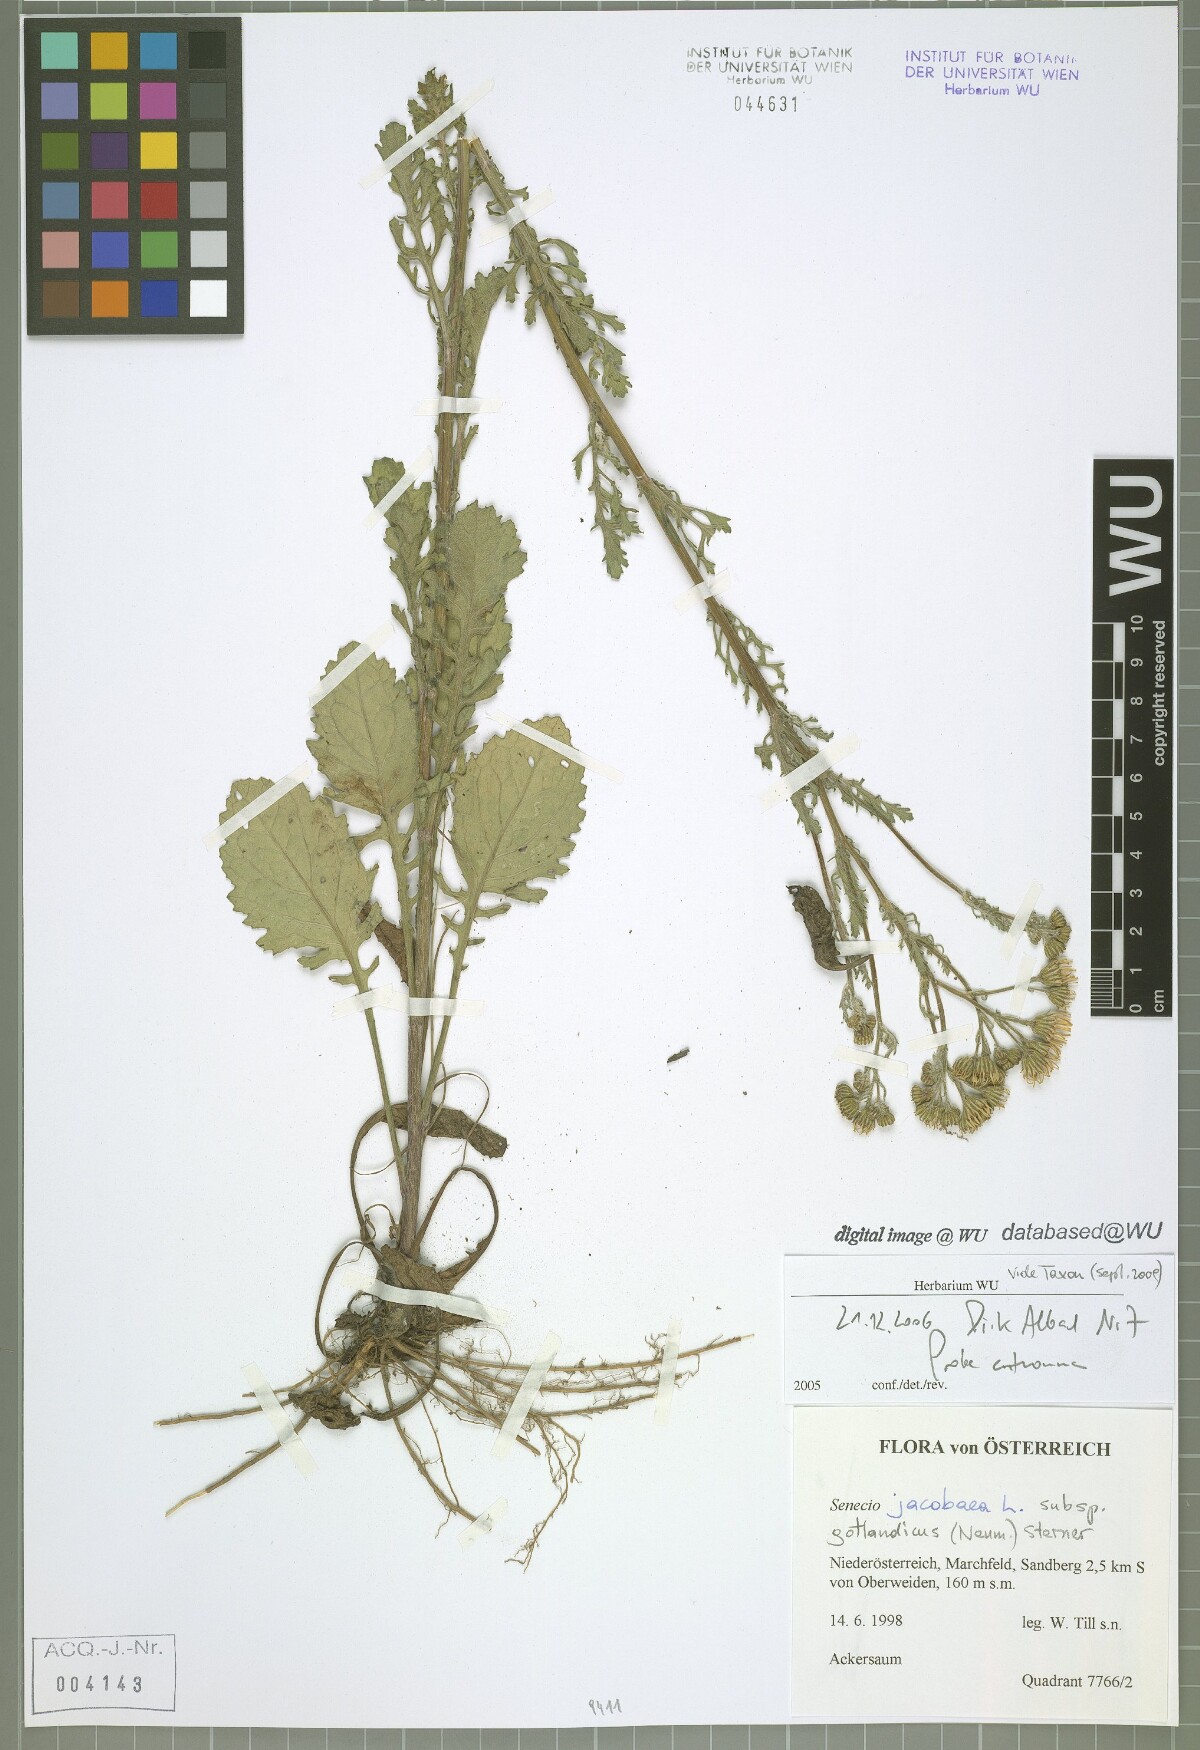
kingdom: Plantae
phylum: Tracheophyta
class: Magnoliopsida
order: Asterales
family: Asteraceae
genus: Jacobaea
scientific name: Jacobaea vulgaris
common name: Stinking willie
